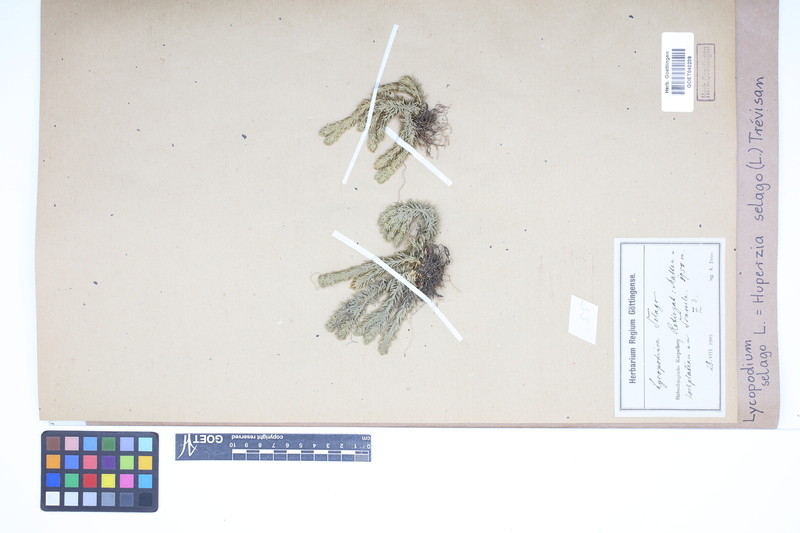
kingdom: Plantae
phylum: Tracheophyta
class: Lycopodiopsida
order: Lycopodiales
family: Lycopodiaceae
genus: Huperzia
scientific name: Huperzia selago
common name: Northern firmoss
